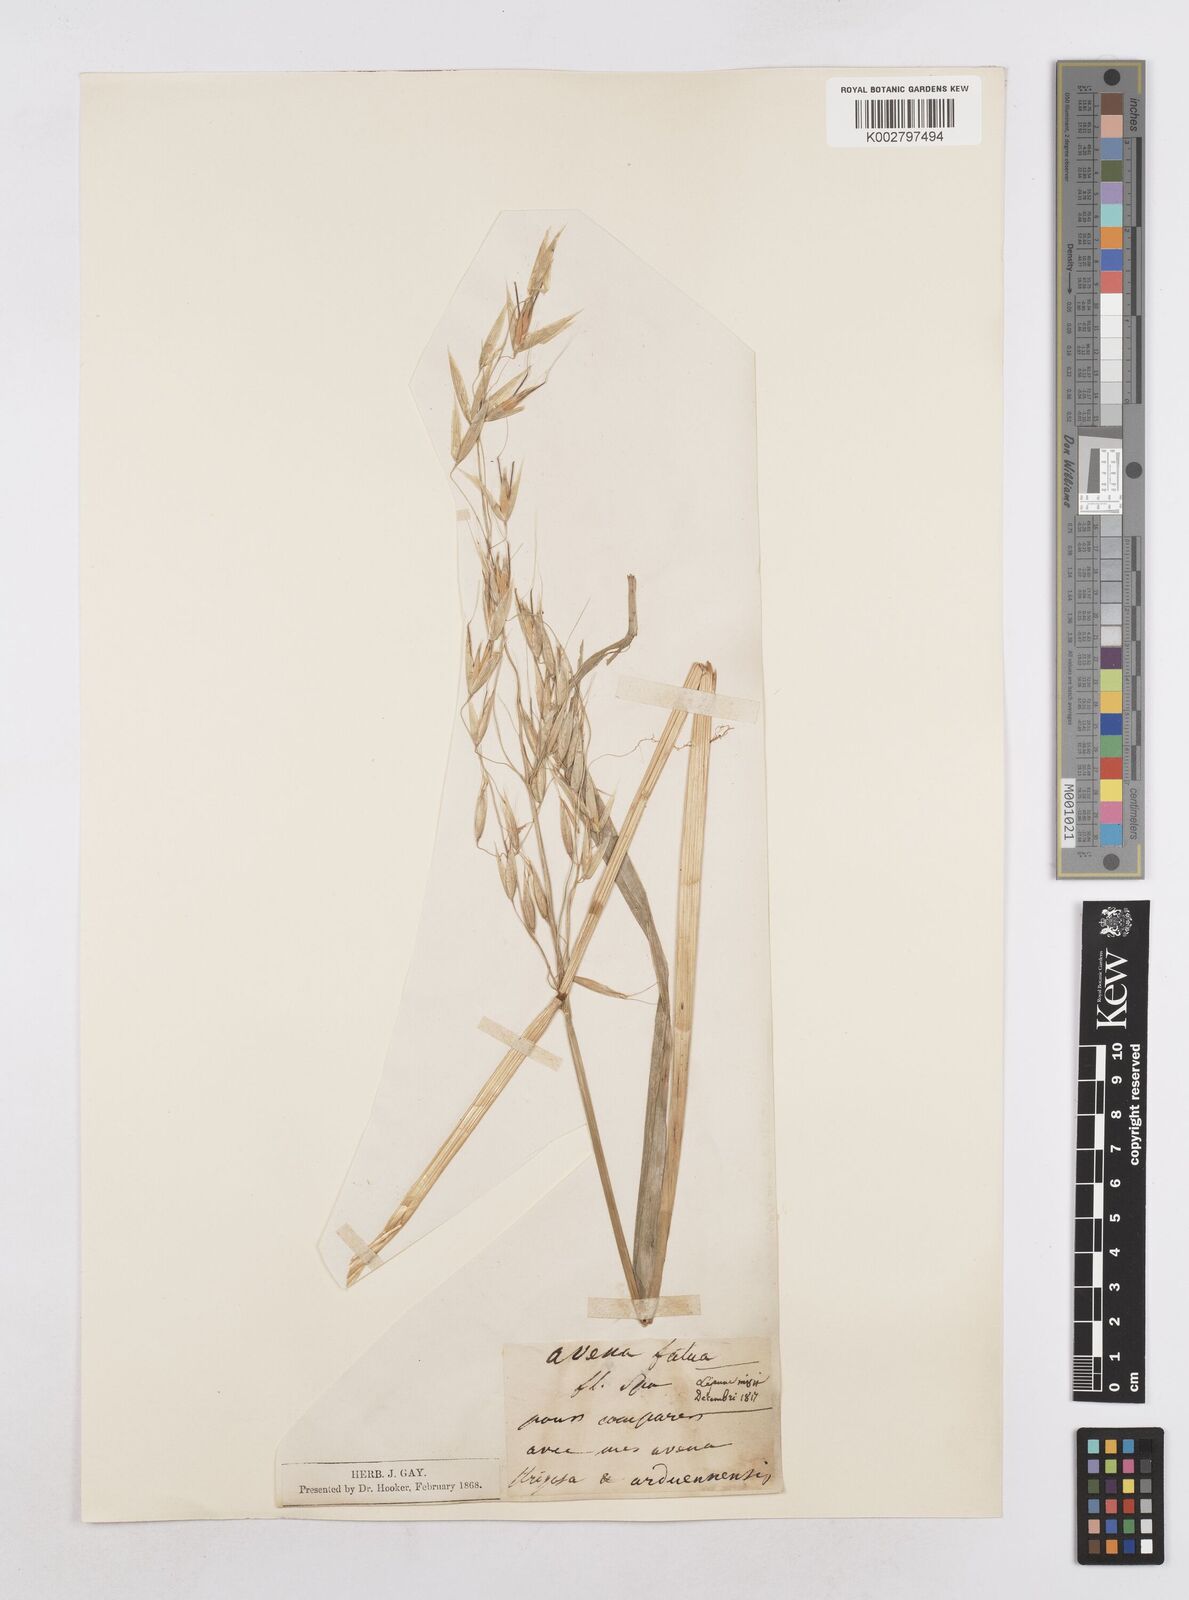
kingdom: Plantae
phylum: Tracheophyta
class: Liliopsida
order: Poales
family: Poaceae
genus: Avena
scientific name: Avena fatua
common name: Wild oat
